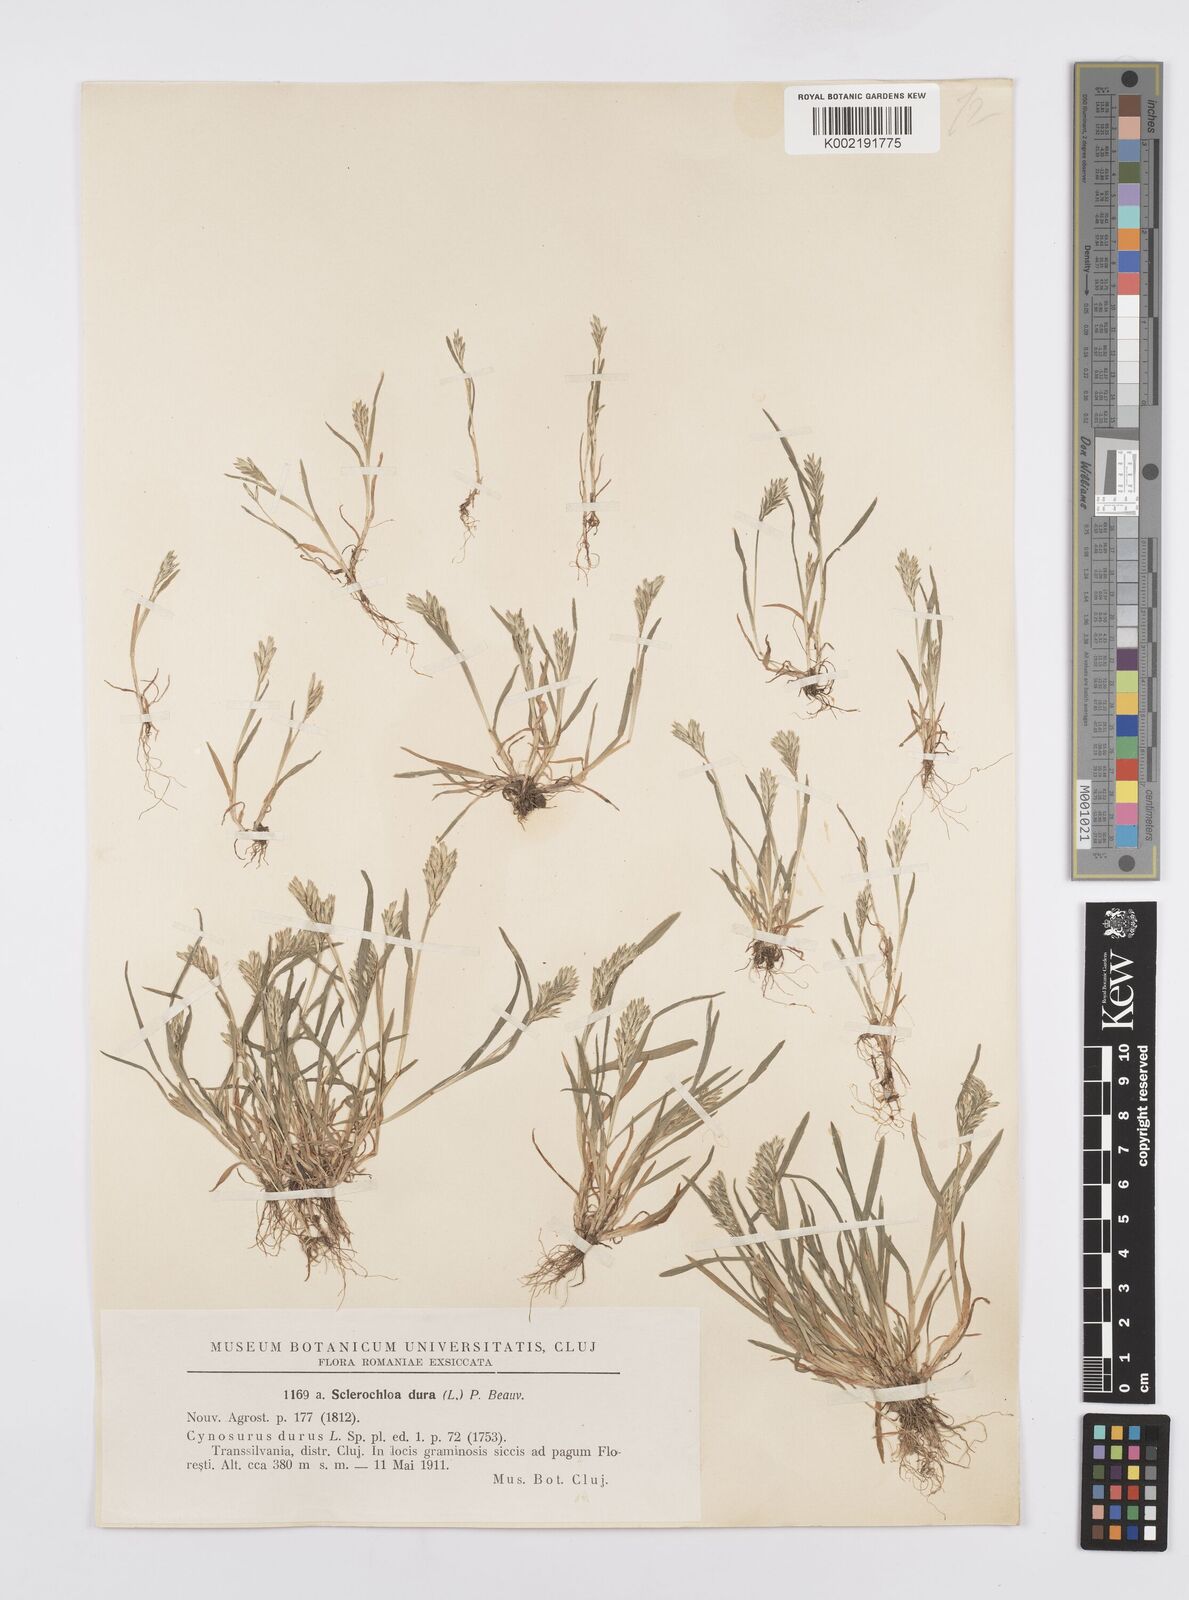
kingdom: Plantae
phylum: Tracheophyta
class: Liliopsida
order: Poales
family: Poaceae
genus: Sclerochloa
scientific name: Sclerochloa dura
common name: Common hardgrass
